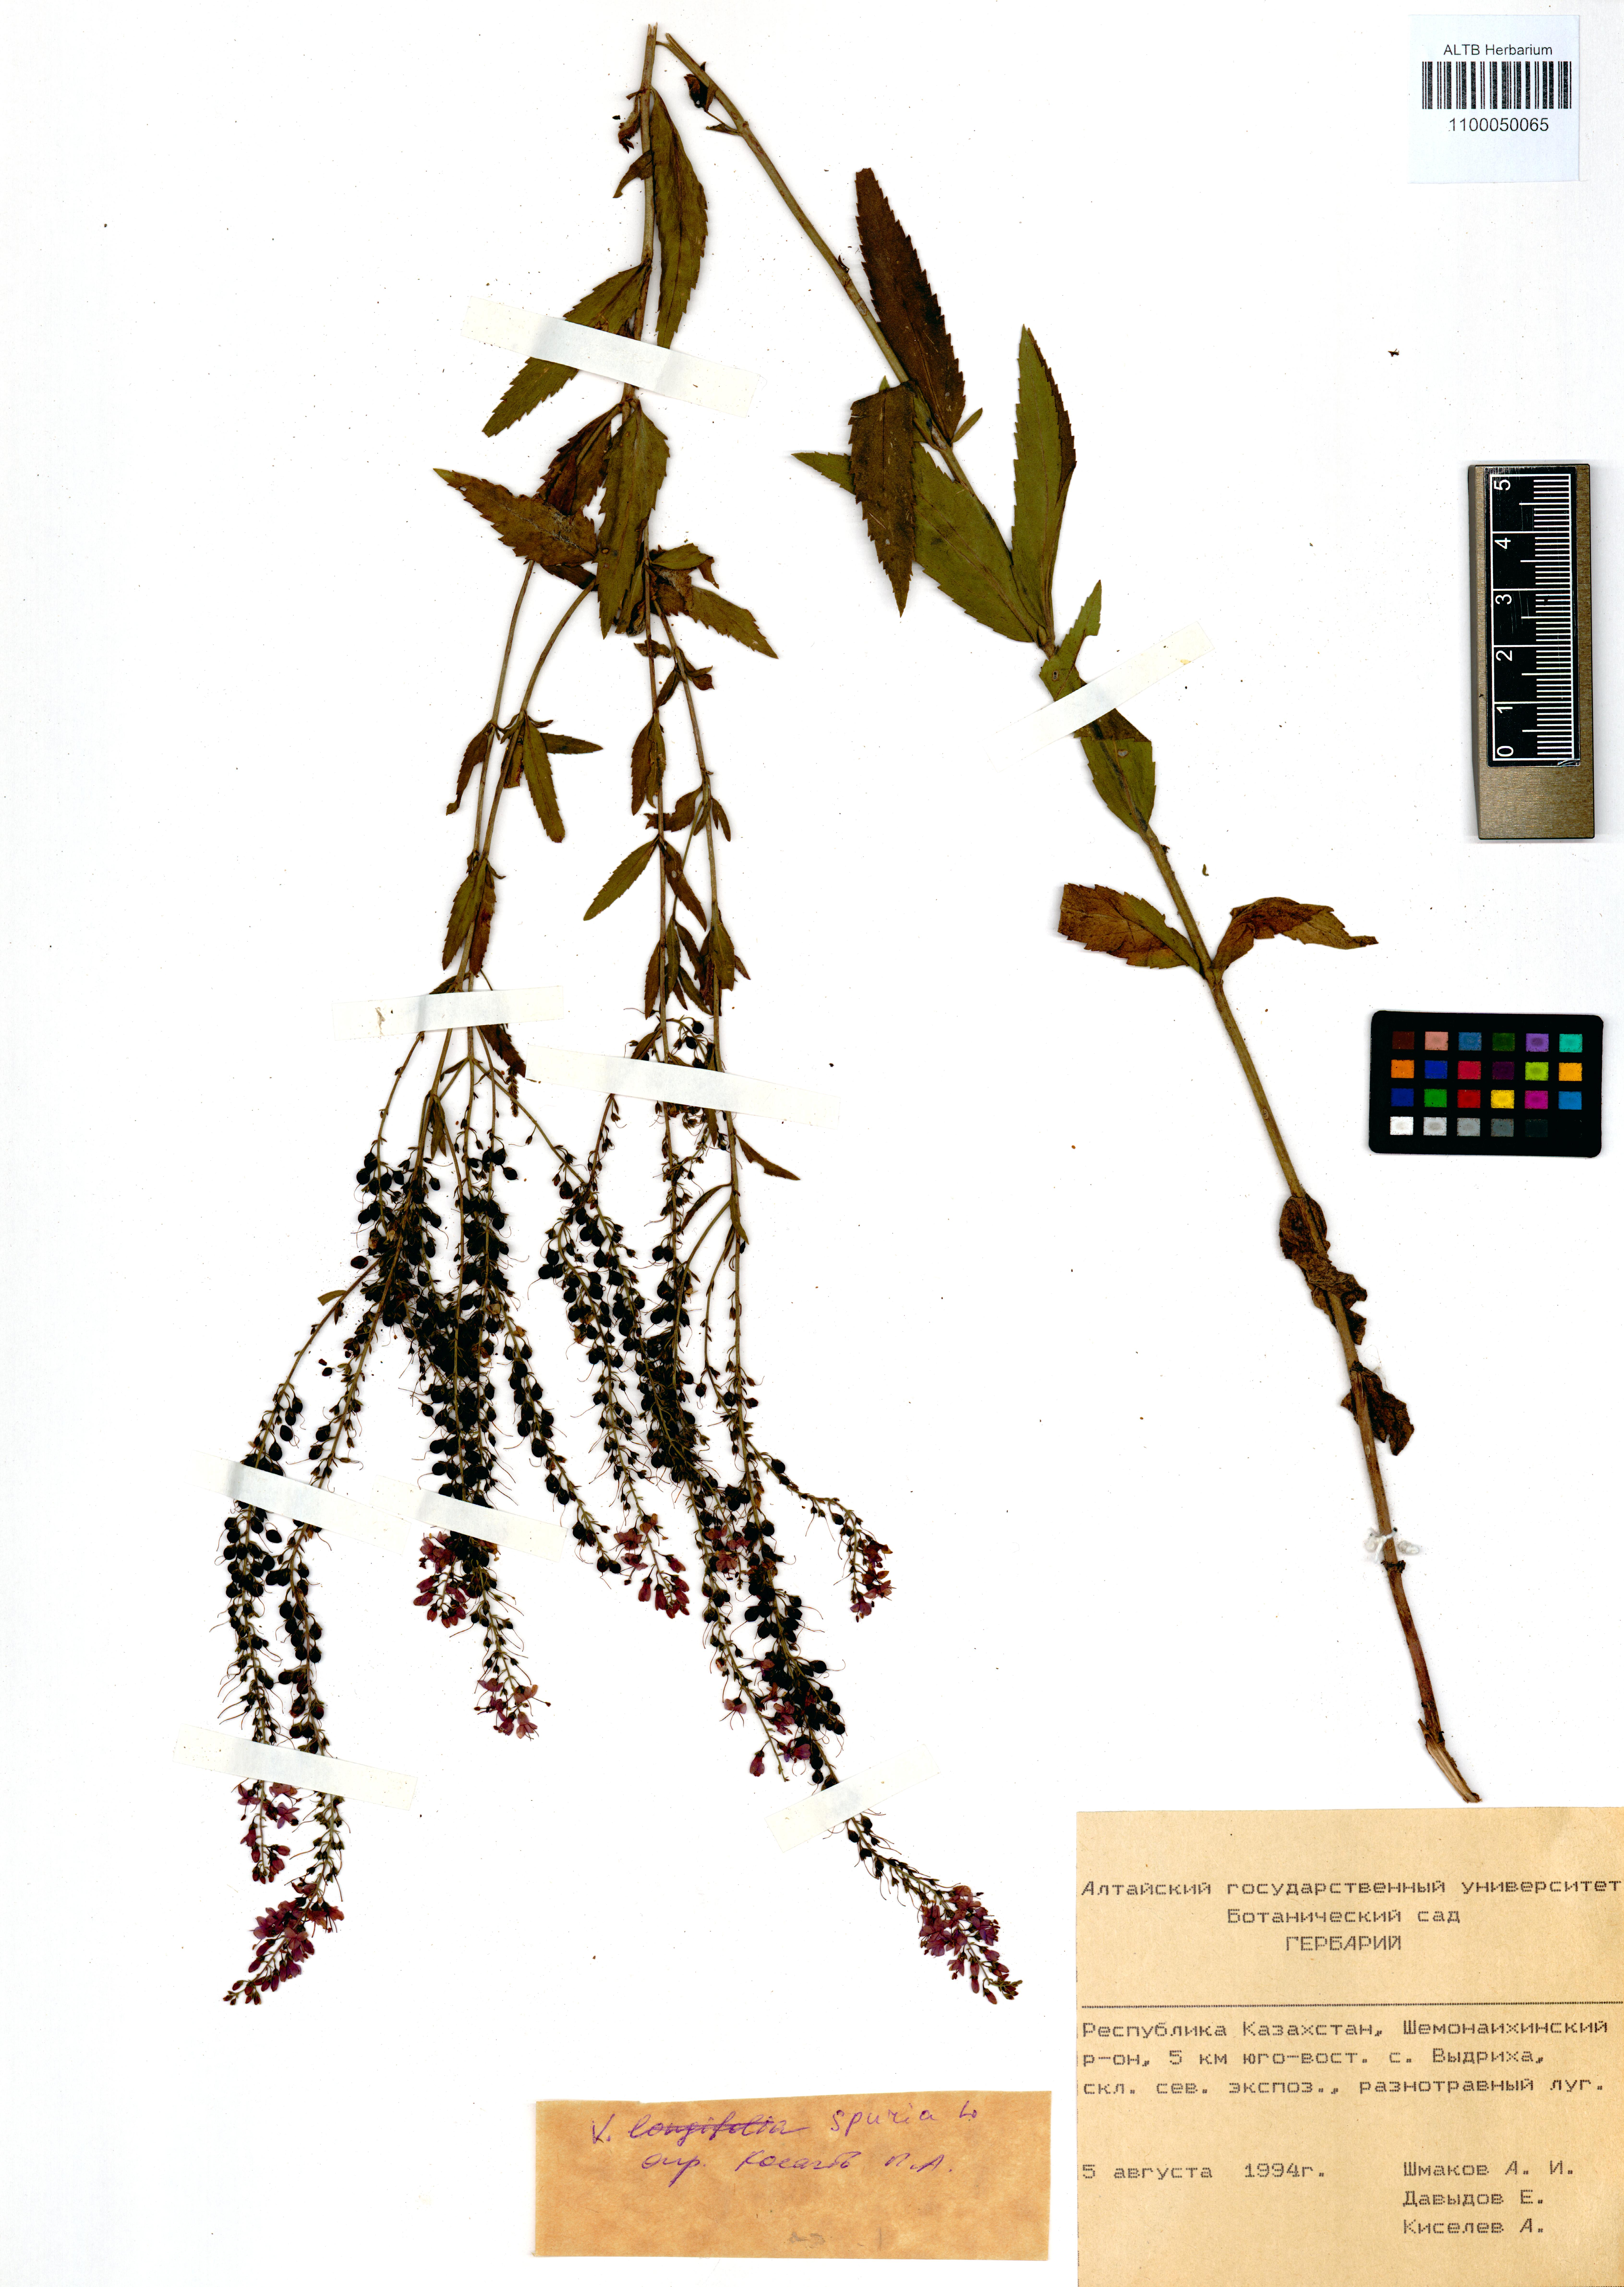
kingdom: Plantae
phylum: Tracheophyta
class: Magnoliopsida
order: Lamiales
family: Plantaginaceae
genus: Veronica
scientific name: Veronica spuria
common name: Bastard speedwell
